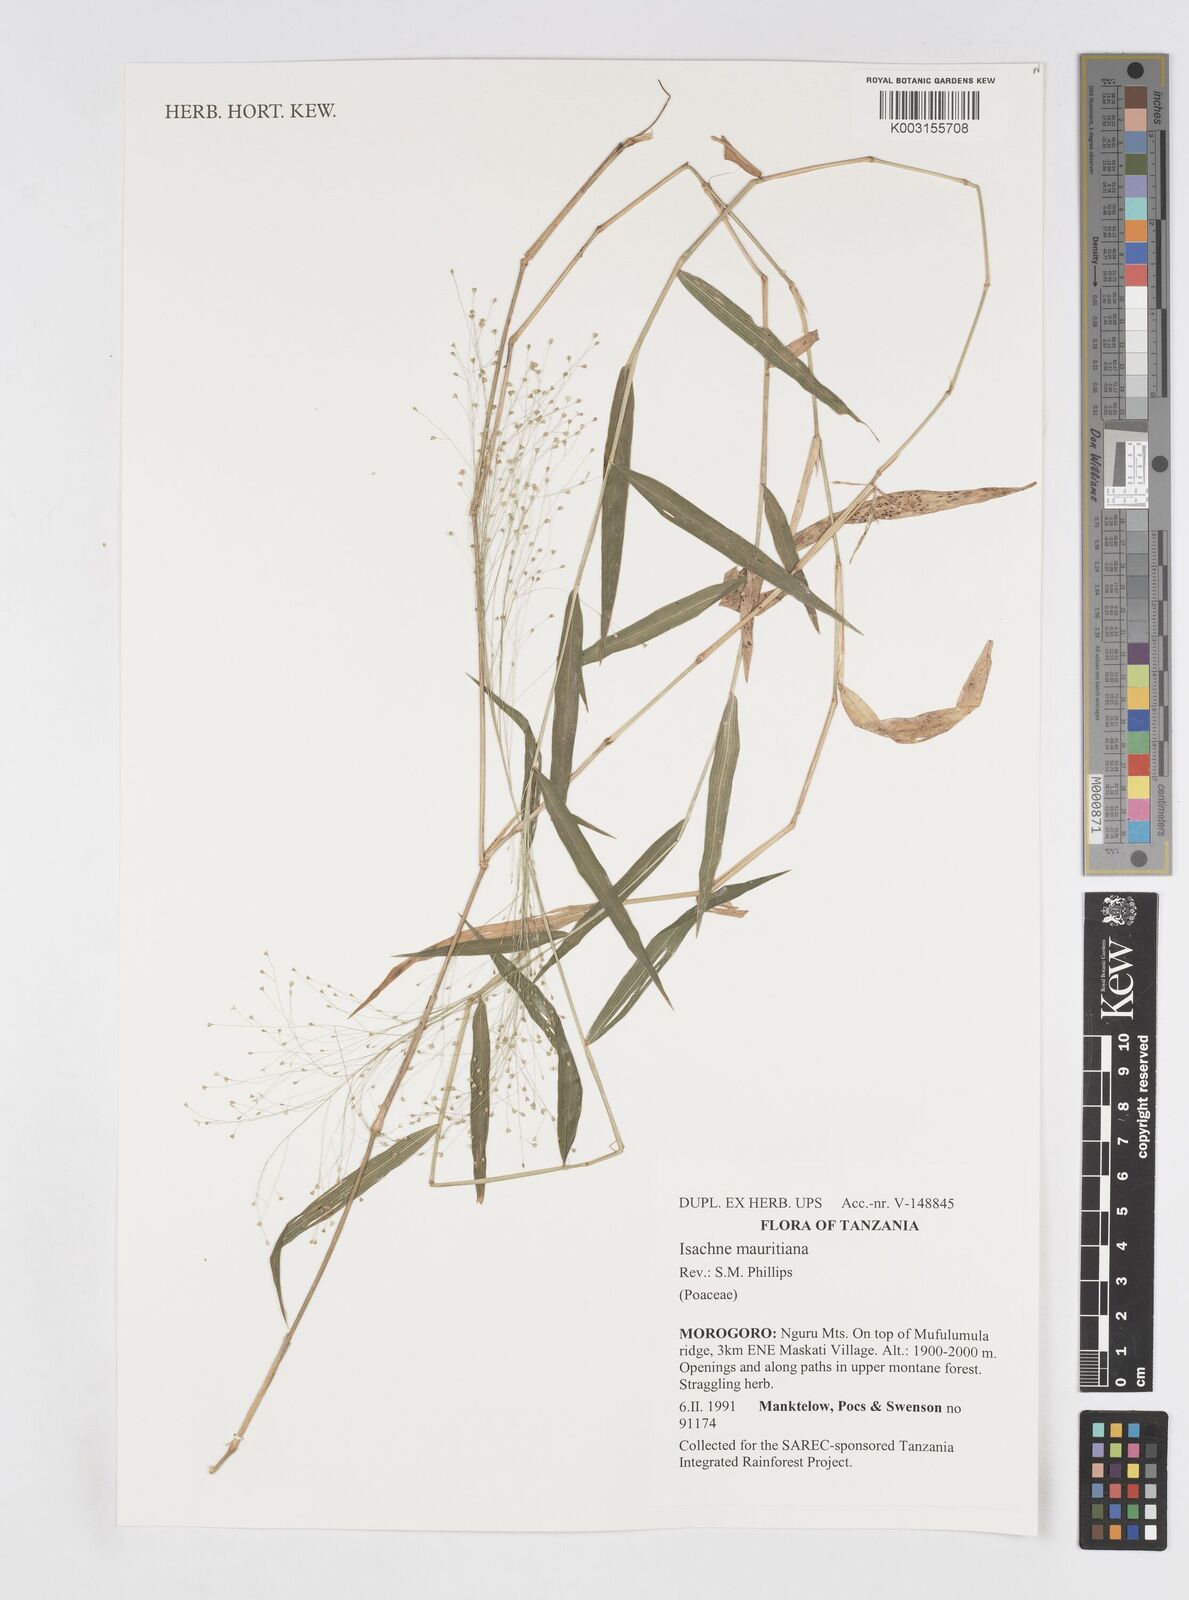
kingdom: Plantae
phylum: Tracheophyta
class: Liliopsida
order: Poales
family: Poaceae
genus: Isachne
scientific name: Isachne mauritiana
